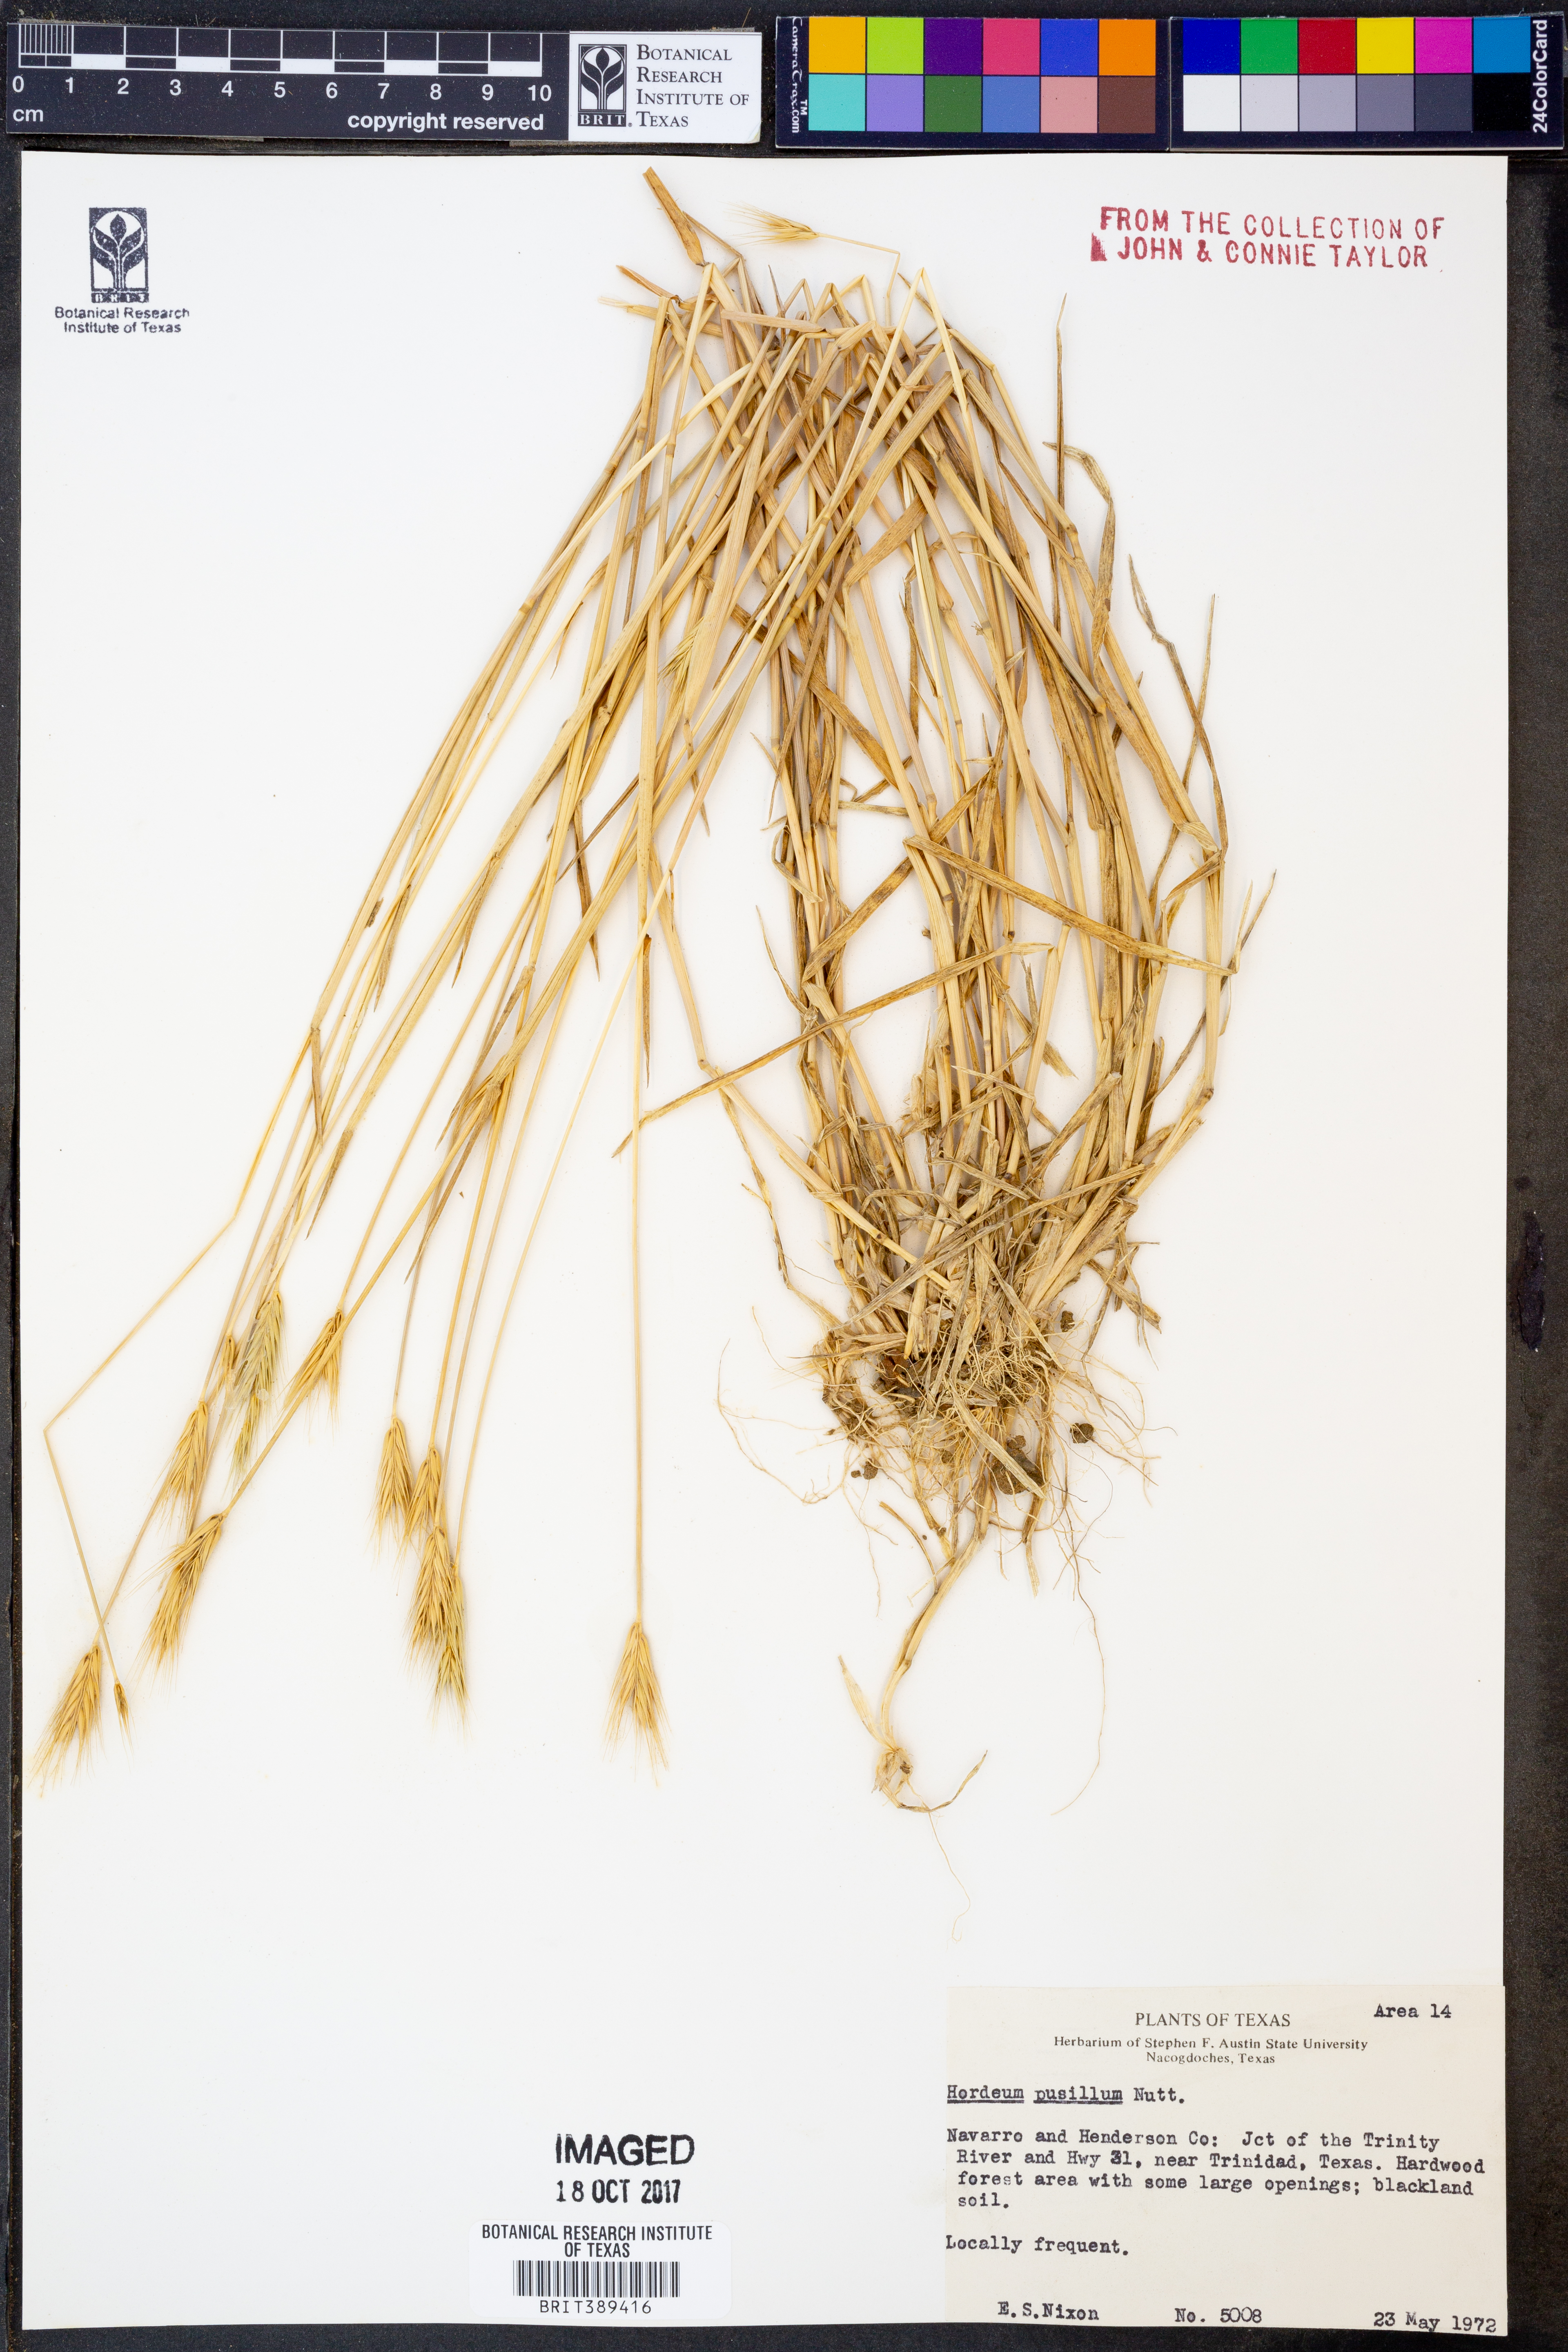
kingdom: Plantae
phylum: Tracheophyta
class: Liliopsida
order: Poales
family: Poaceae
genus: Hordeum
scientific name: Hordeum pusillum
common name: Little barley
